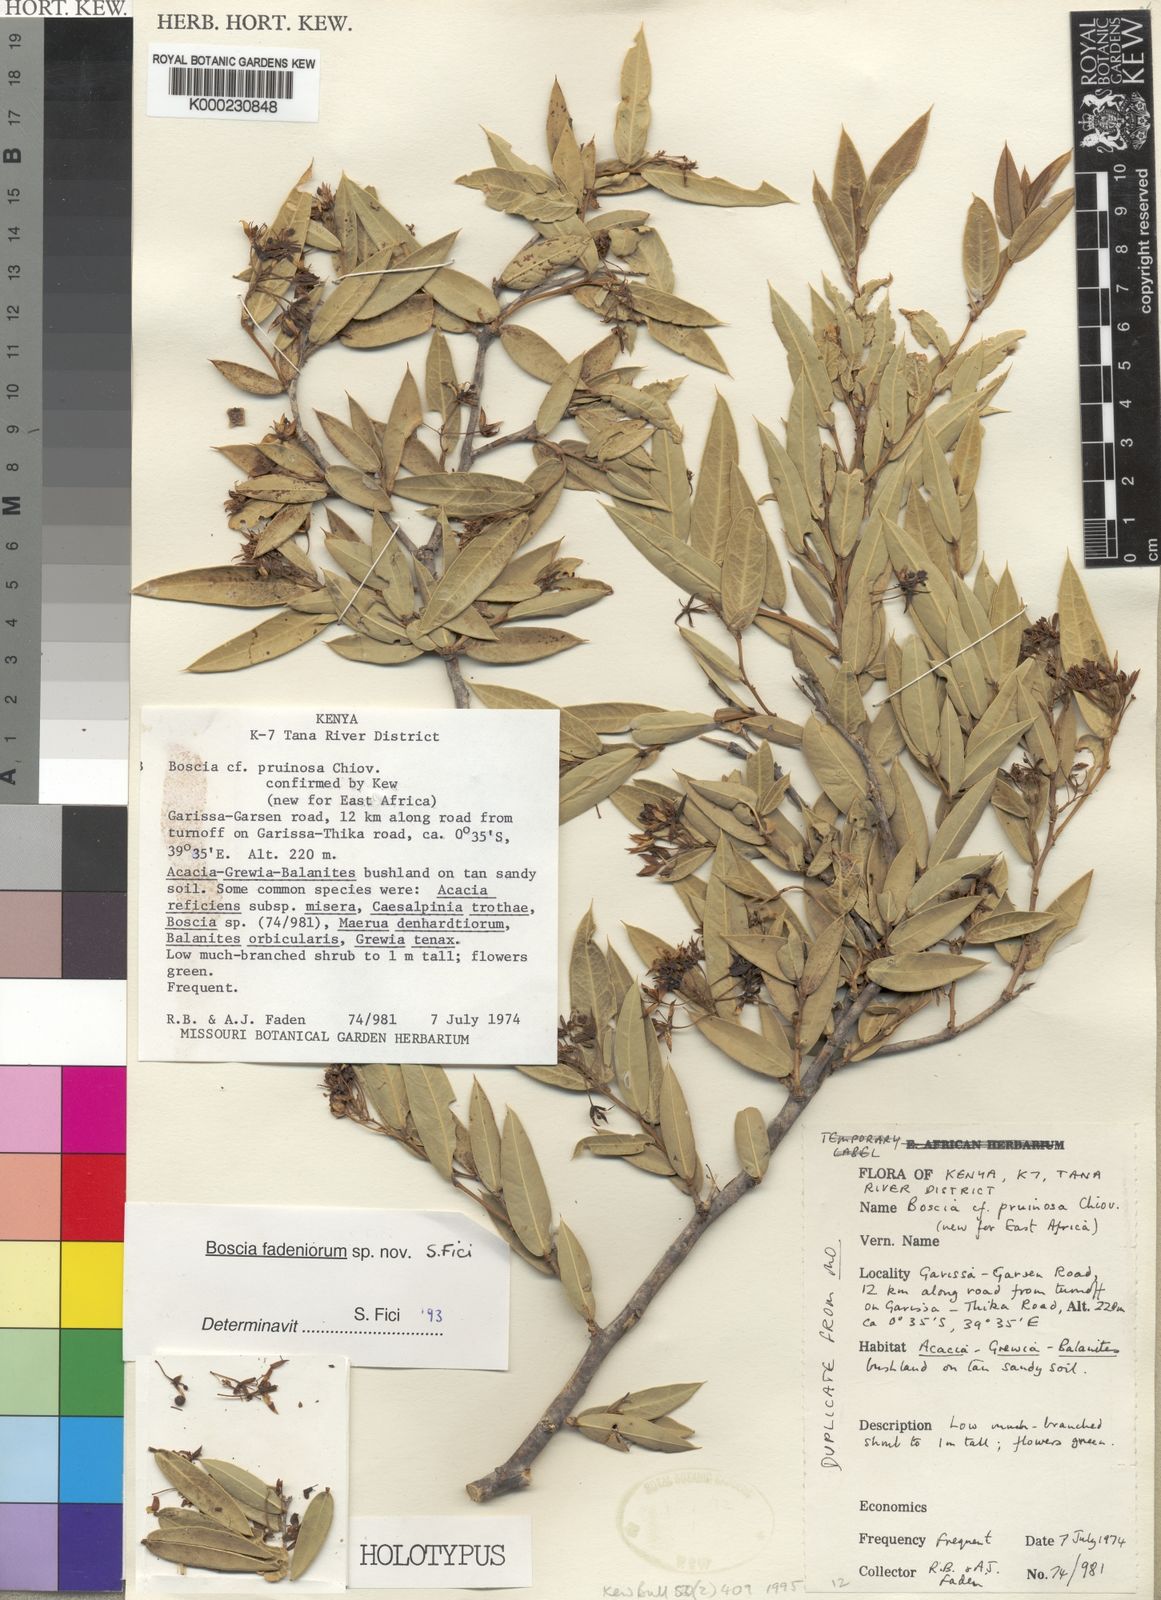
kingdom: Plantae
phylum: Tracheophyta
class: Magnoliopsida
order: Brassicales
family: Capparaceae
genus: Boscia
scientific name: Boscia fadeniorum
